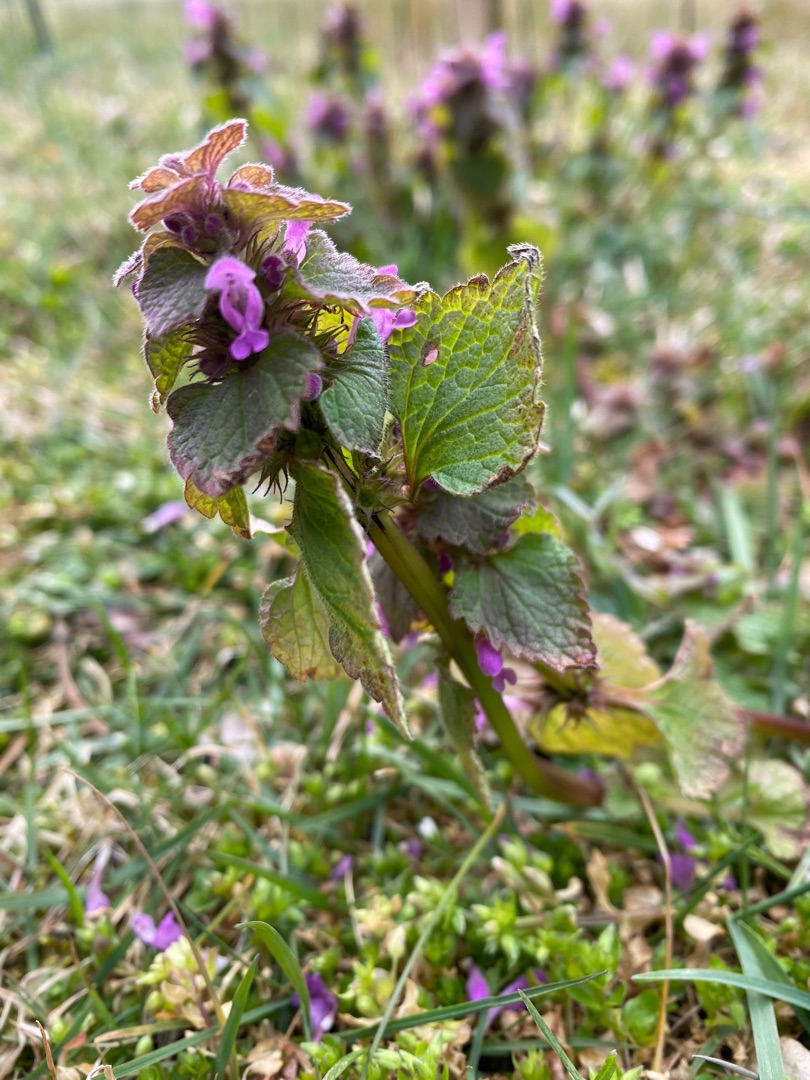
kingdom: Plantae
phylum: Tracheophyta
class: Magnoliopsida
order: Lamiales
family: Lamiaceae
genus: Lamium
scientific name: Lamium purpureum
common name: Rød tvetand
